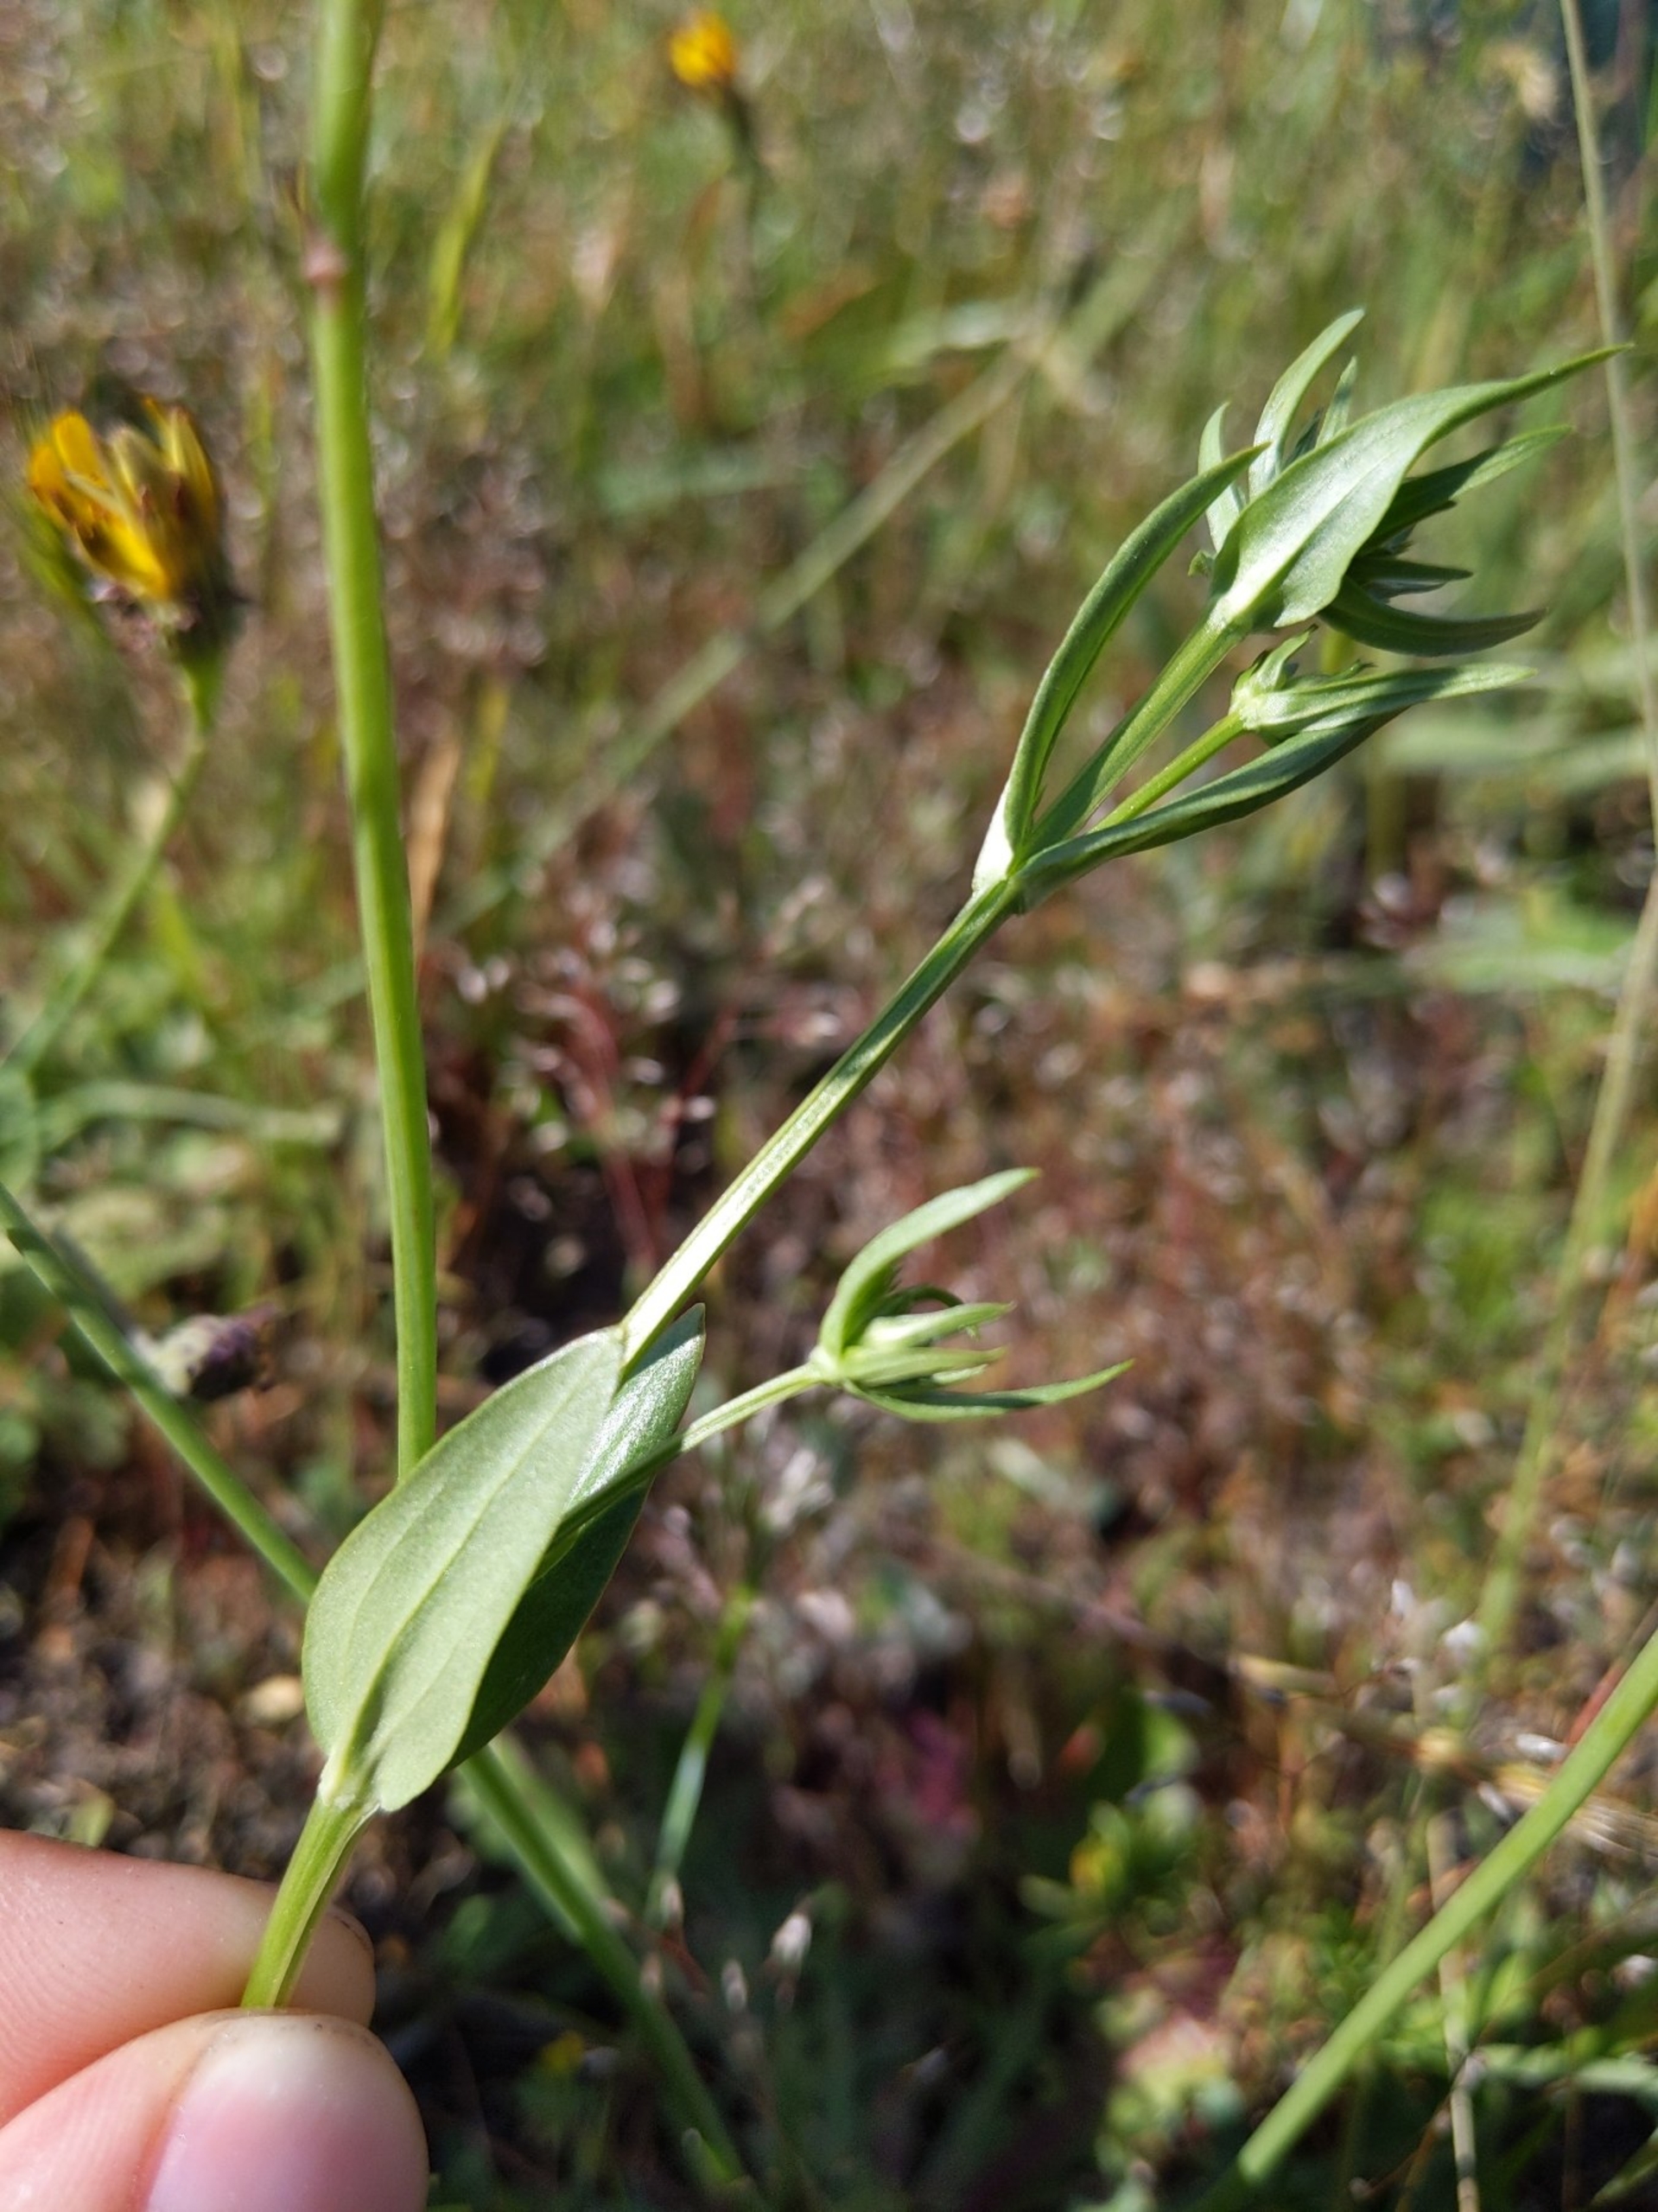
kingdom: Plantae
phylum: Tracheophyta
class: Magnoliopsida
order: Gentianales
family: Gentianaceae
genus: Centaurium
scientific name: Centaurium erythraea
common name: Mark-tusindgylden
